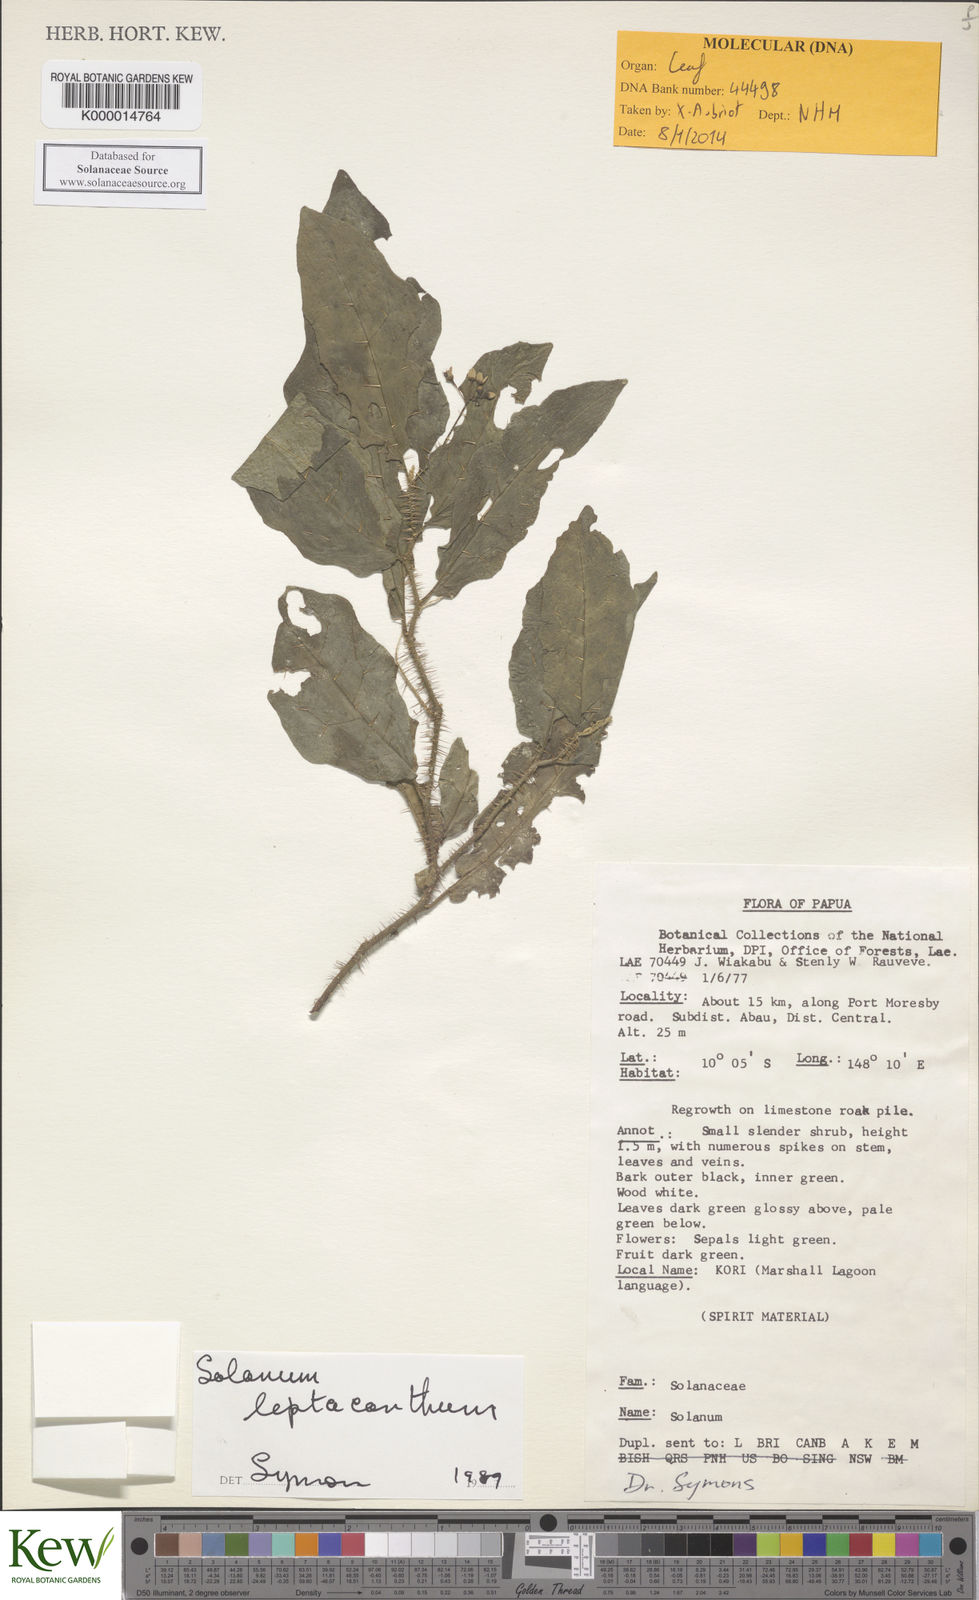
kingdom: Plantae
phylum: Tracheophyta
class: Magnoliopsida
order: Solanales
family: Solanaceae
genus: Solanum
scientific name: Solanum leptacanthum
